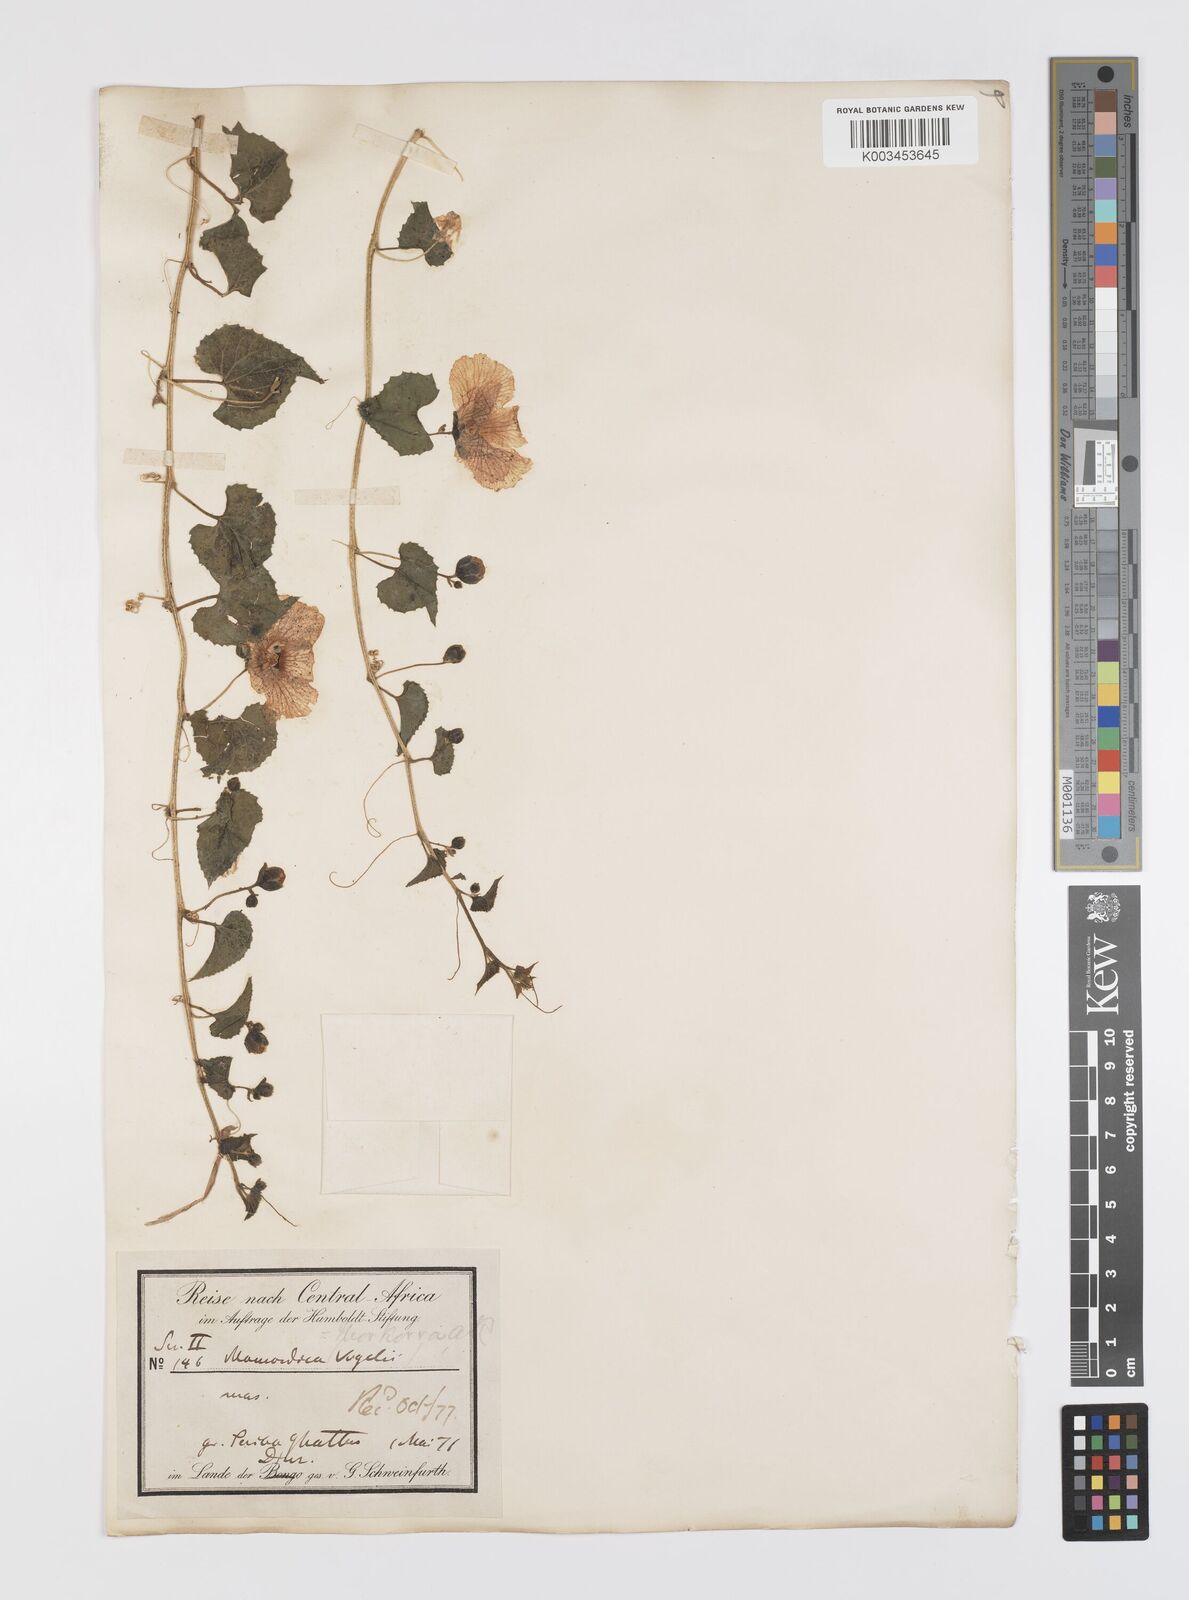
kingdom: Plantae
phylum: Tracheophyta
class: Magnoliopsida
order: Cucurbitales
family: Cucurbitaceae
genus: Momordica
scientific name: Momordica foetida
